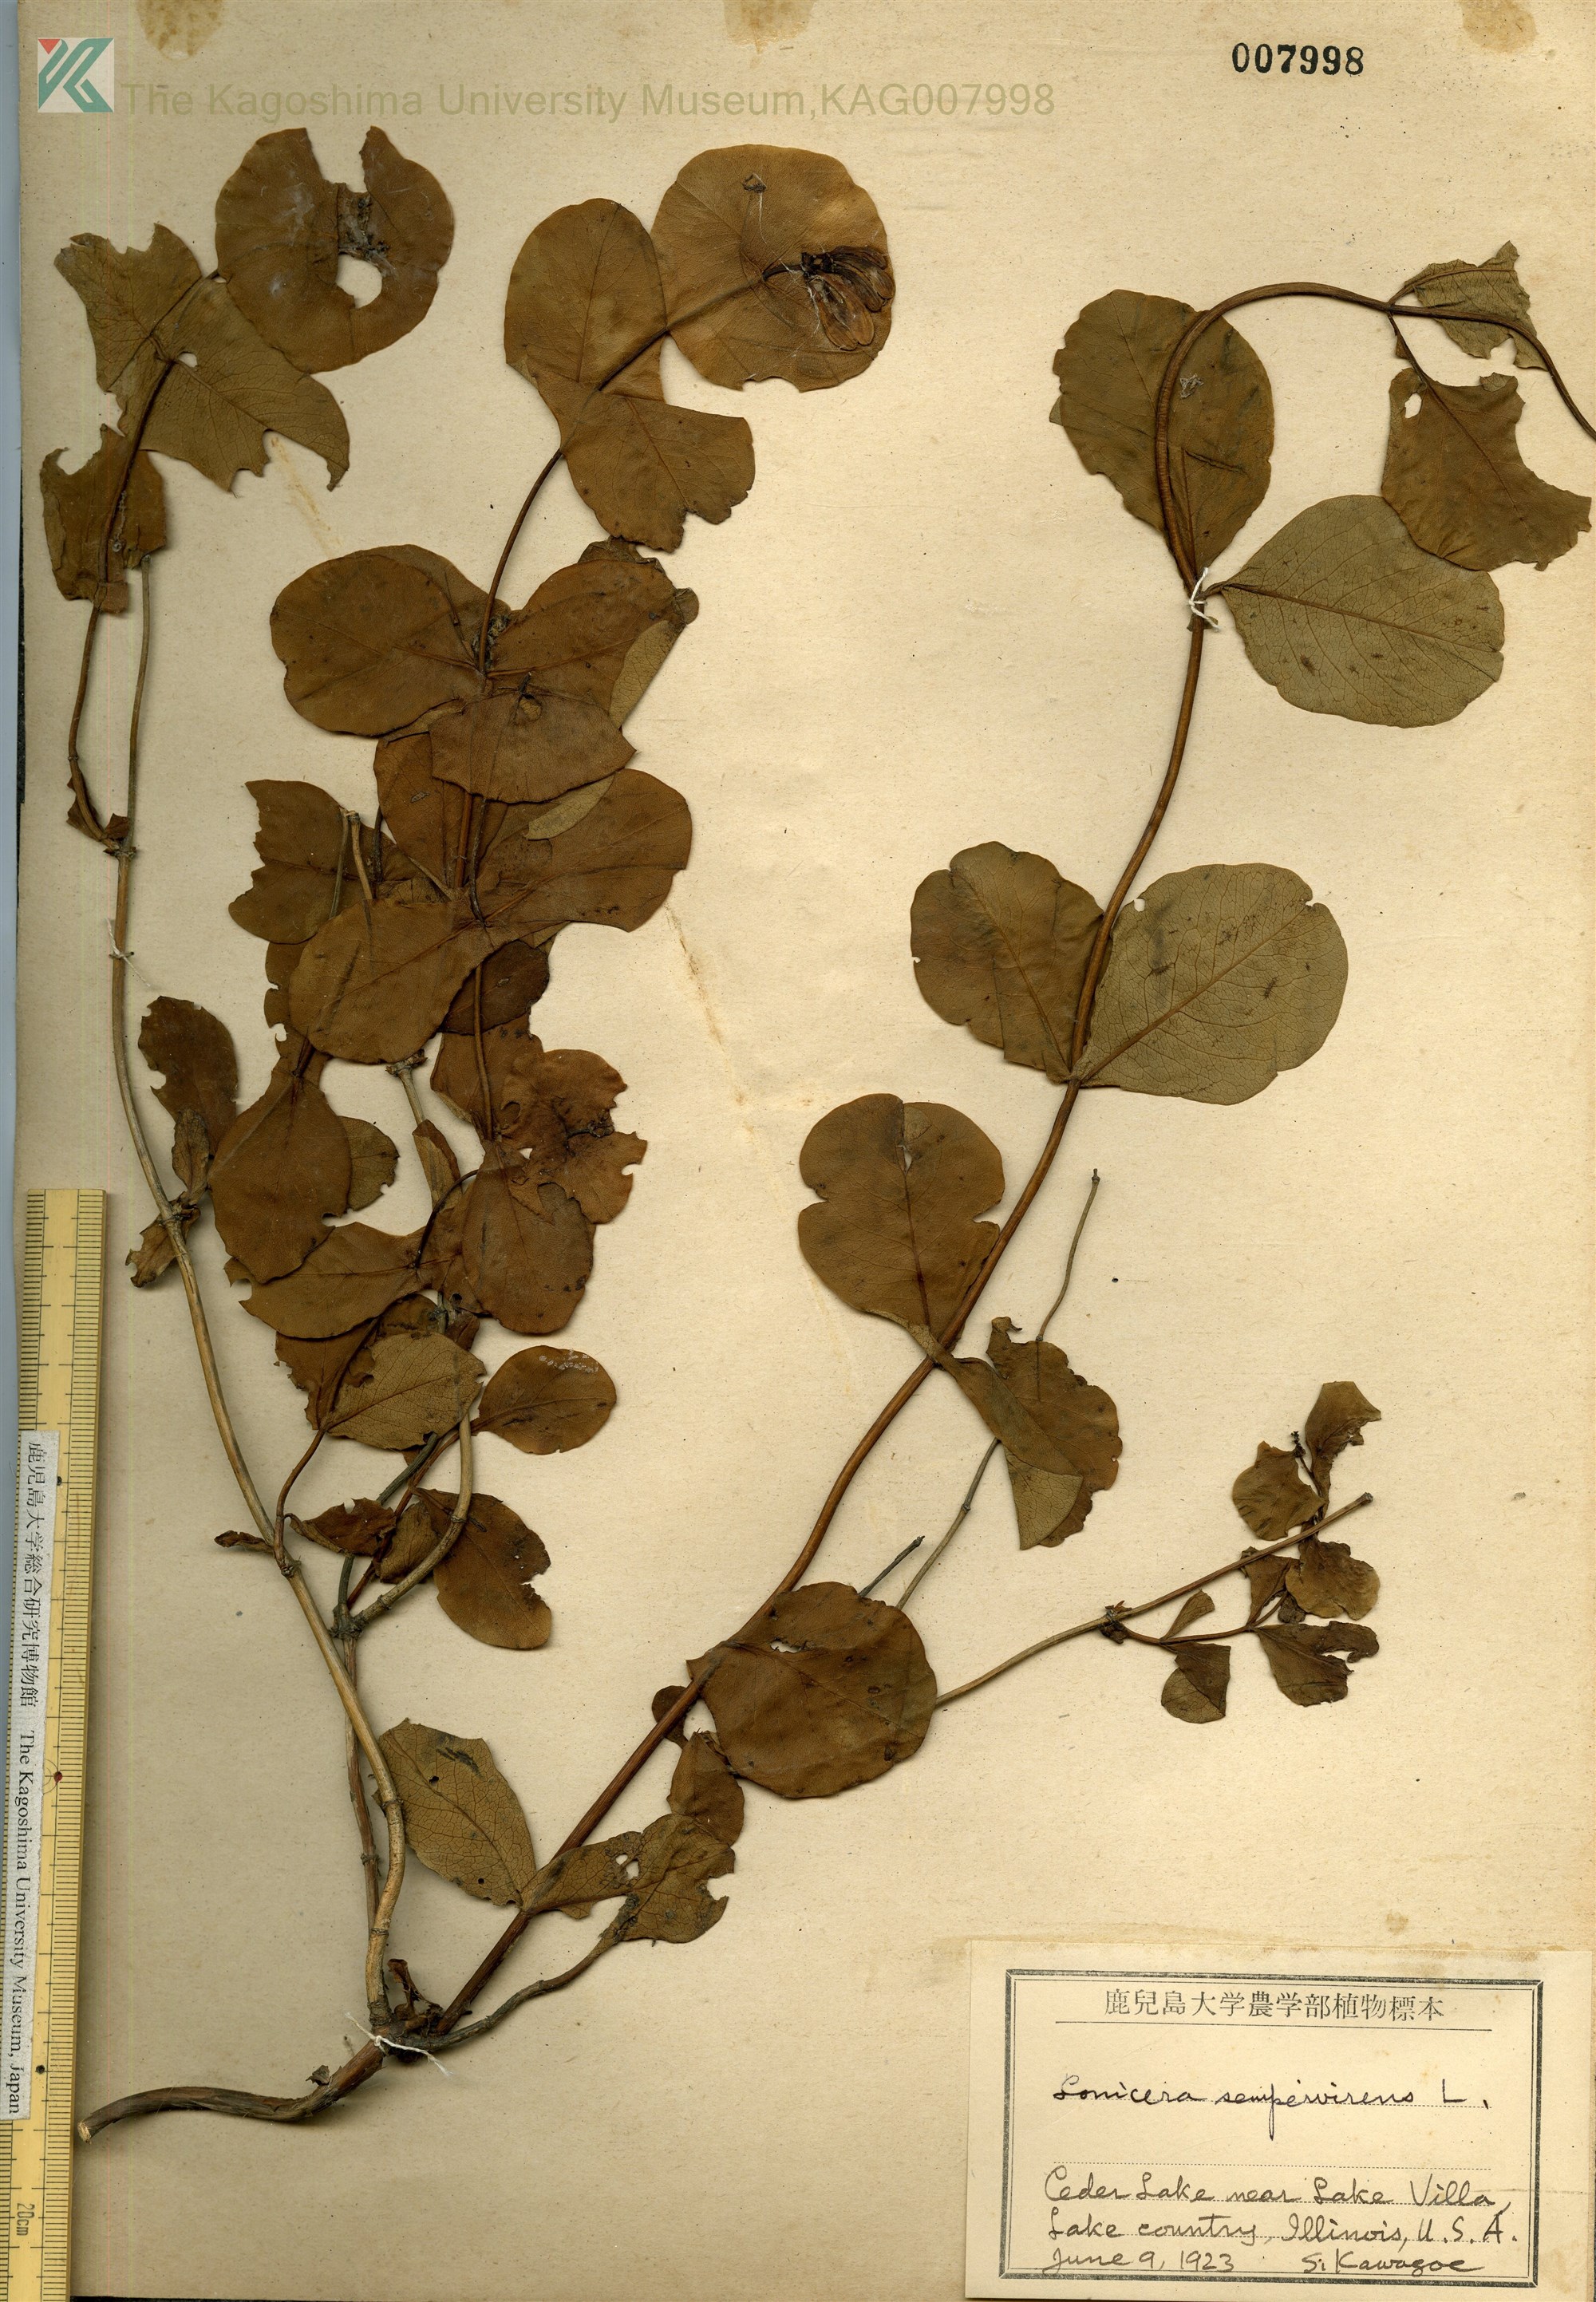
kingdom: Plantae
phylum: Tracheophyta
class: Magnoliopsida
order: Dipsacales
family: Caprifoliaceae
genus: Lonicera
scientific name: Lonicera caprifolium
